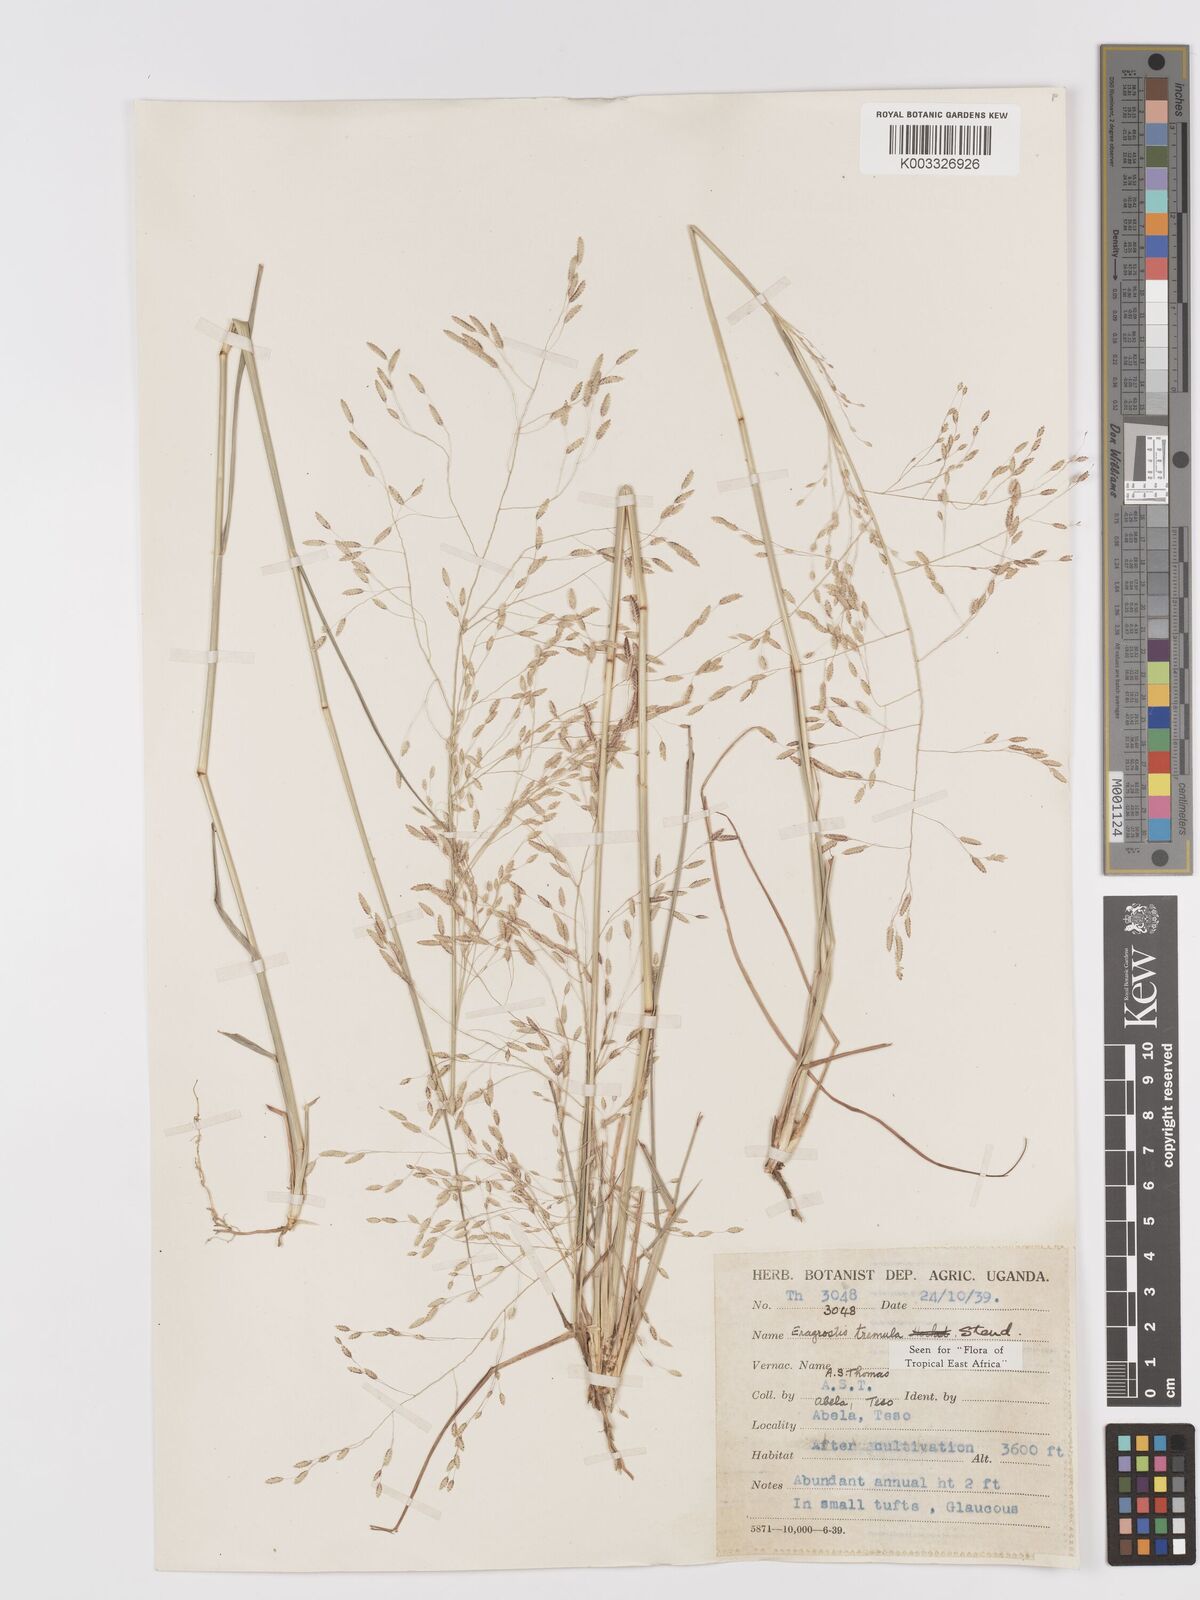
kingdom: Plantae
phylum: Tracheophyta
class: Liliopsida
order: Poales
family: Poaceae
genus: Eragrostis
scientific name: Eragrostis tremula
